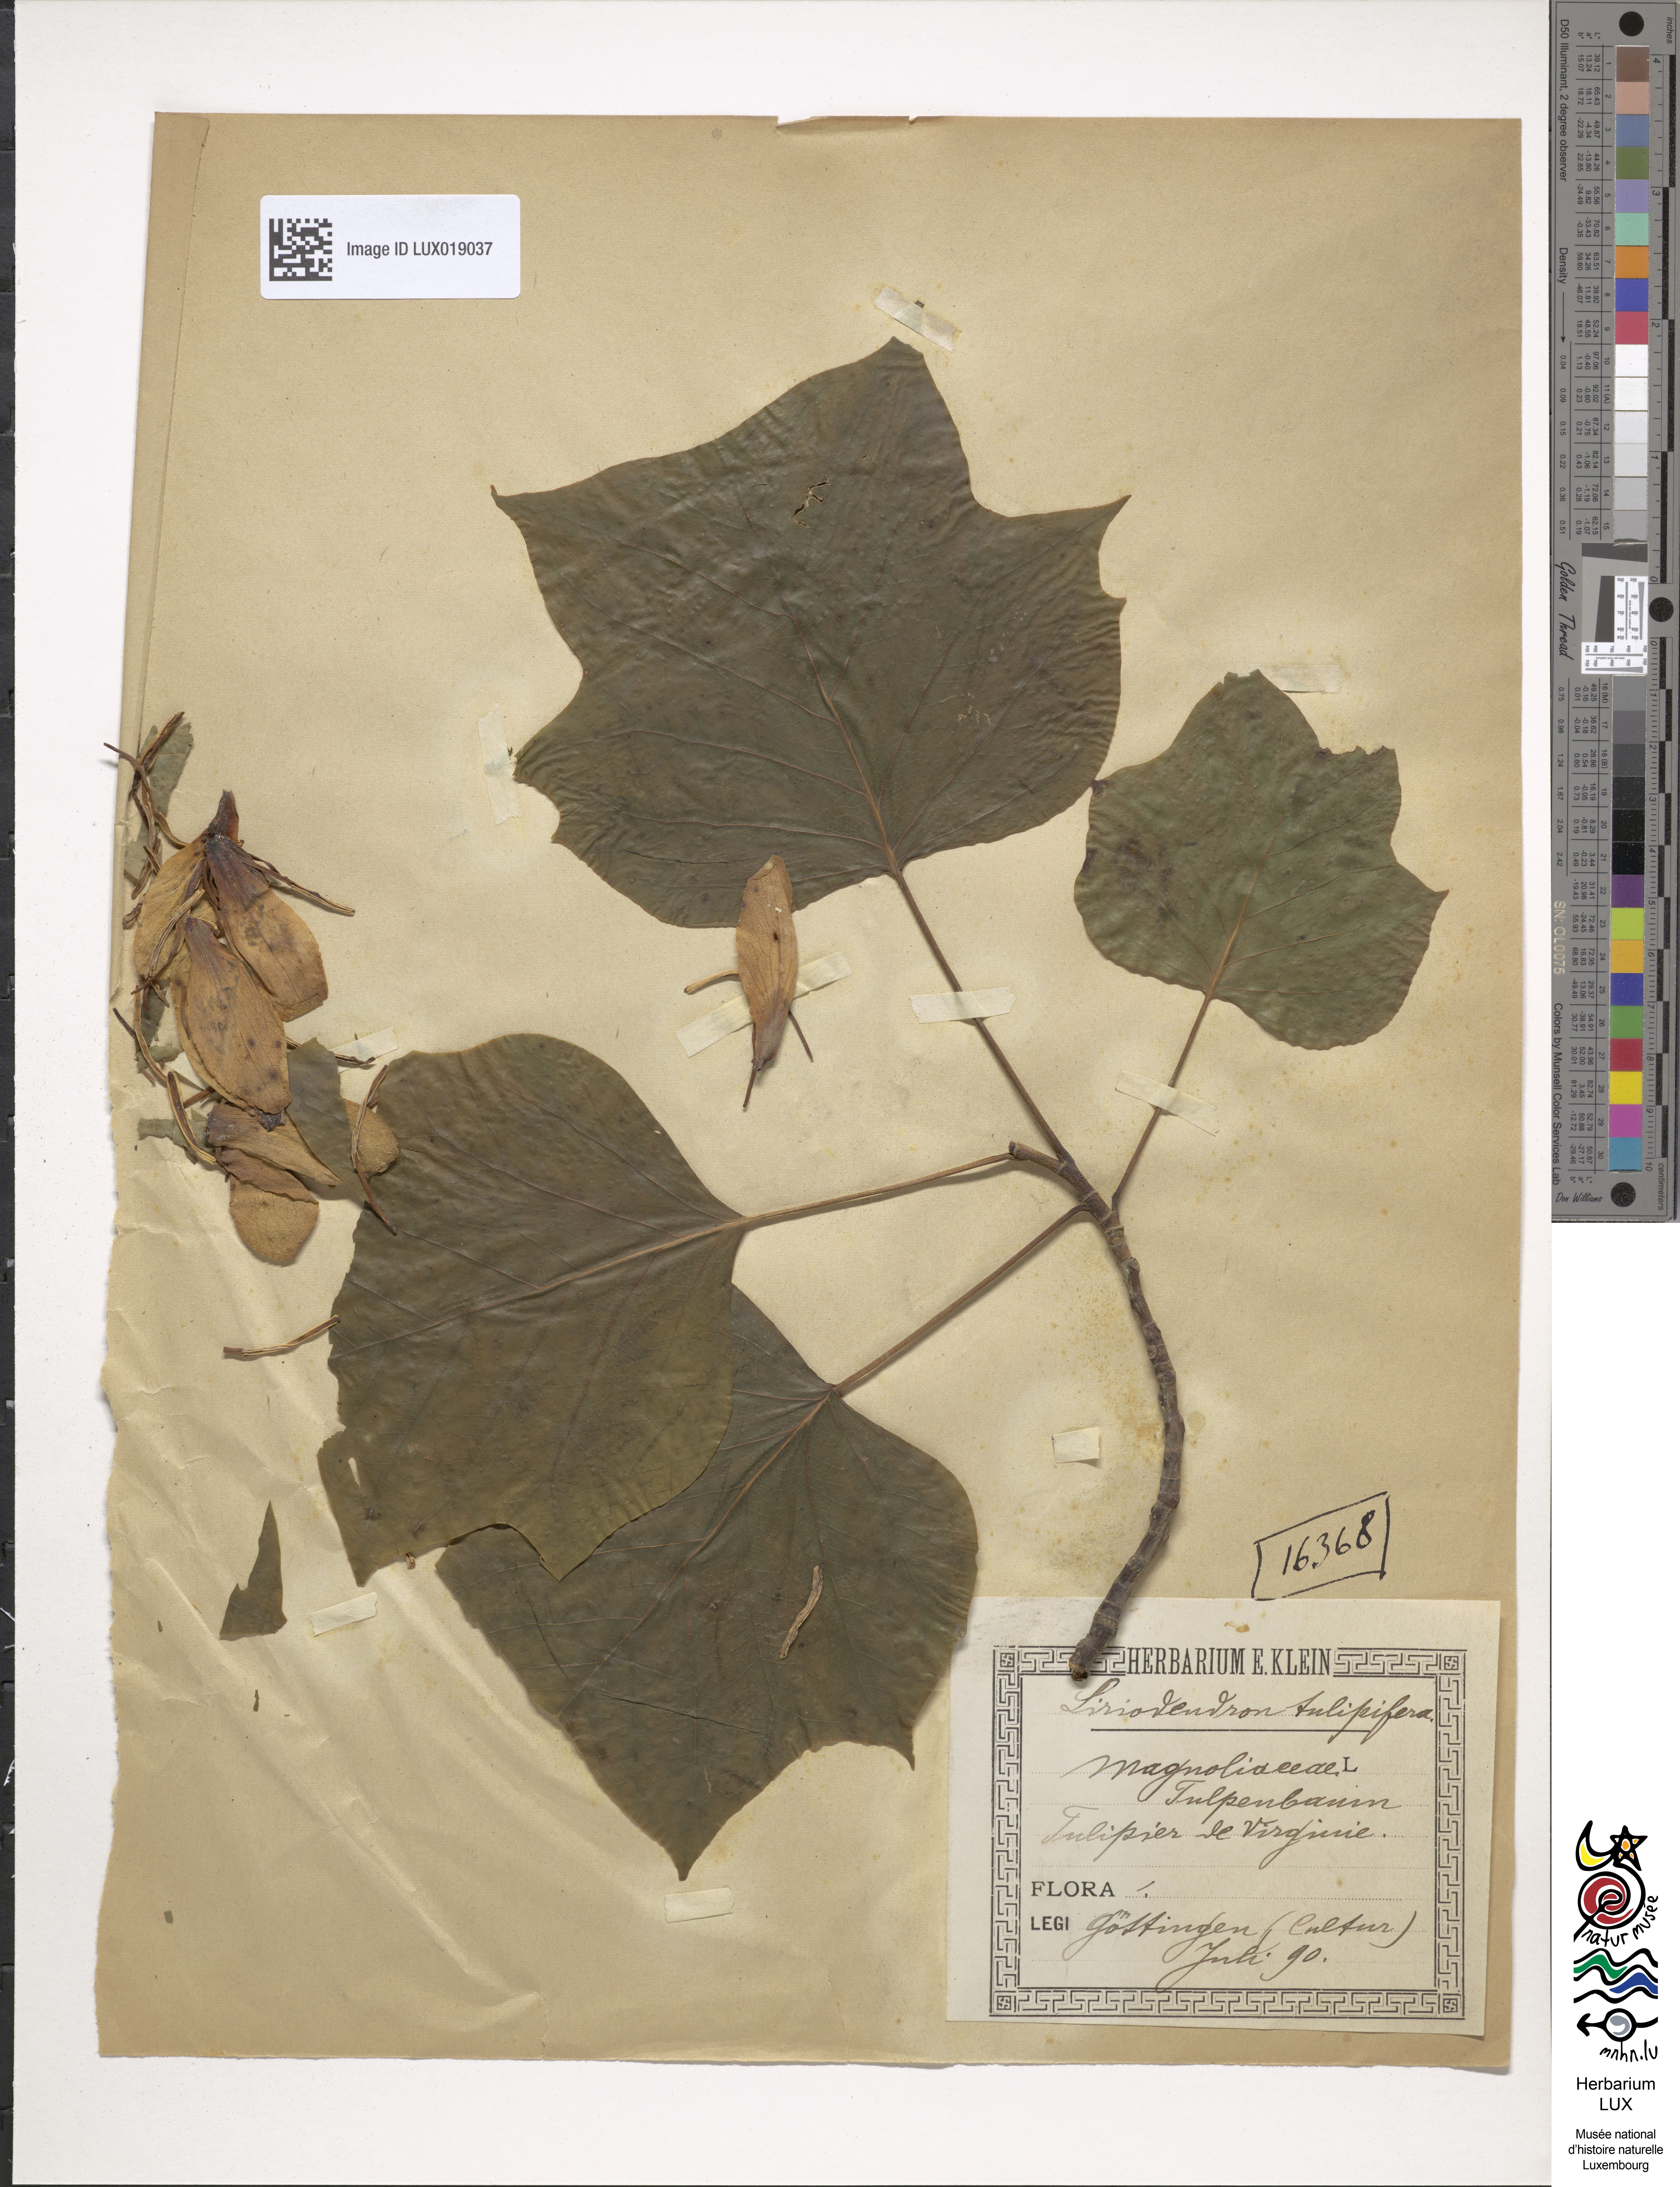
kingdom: Plantae
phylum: Tracheophyta
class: Magnoliopsida
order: Magnoliales
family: Magnoliaceae
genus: Liriodendron
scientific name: Liriodendron tulipifera
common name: Tulip tree
